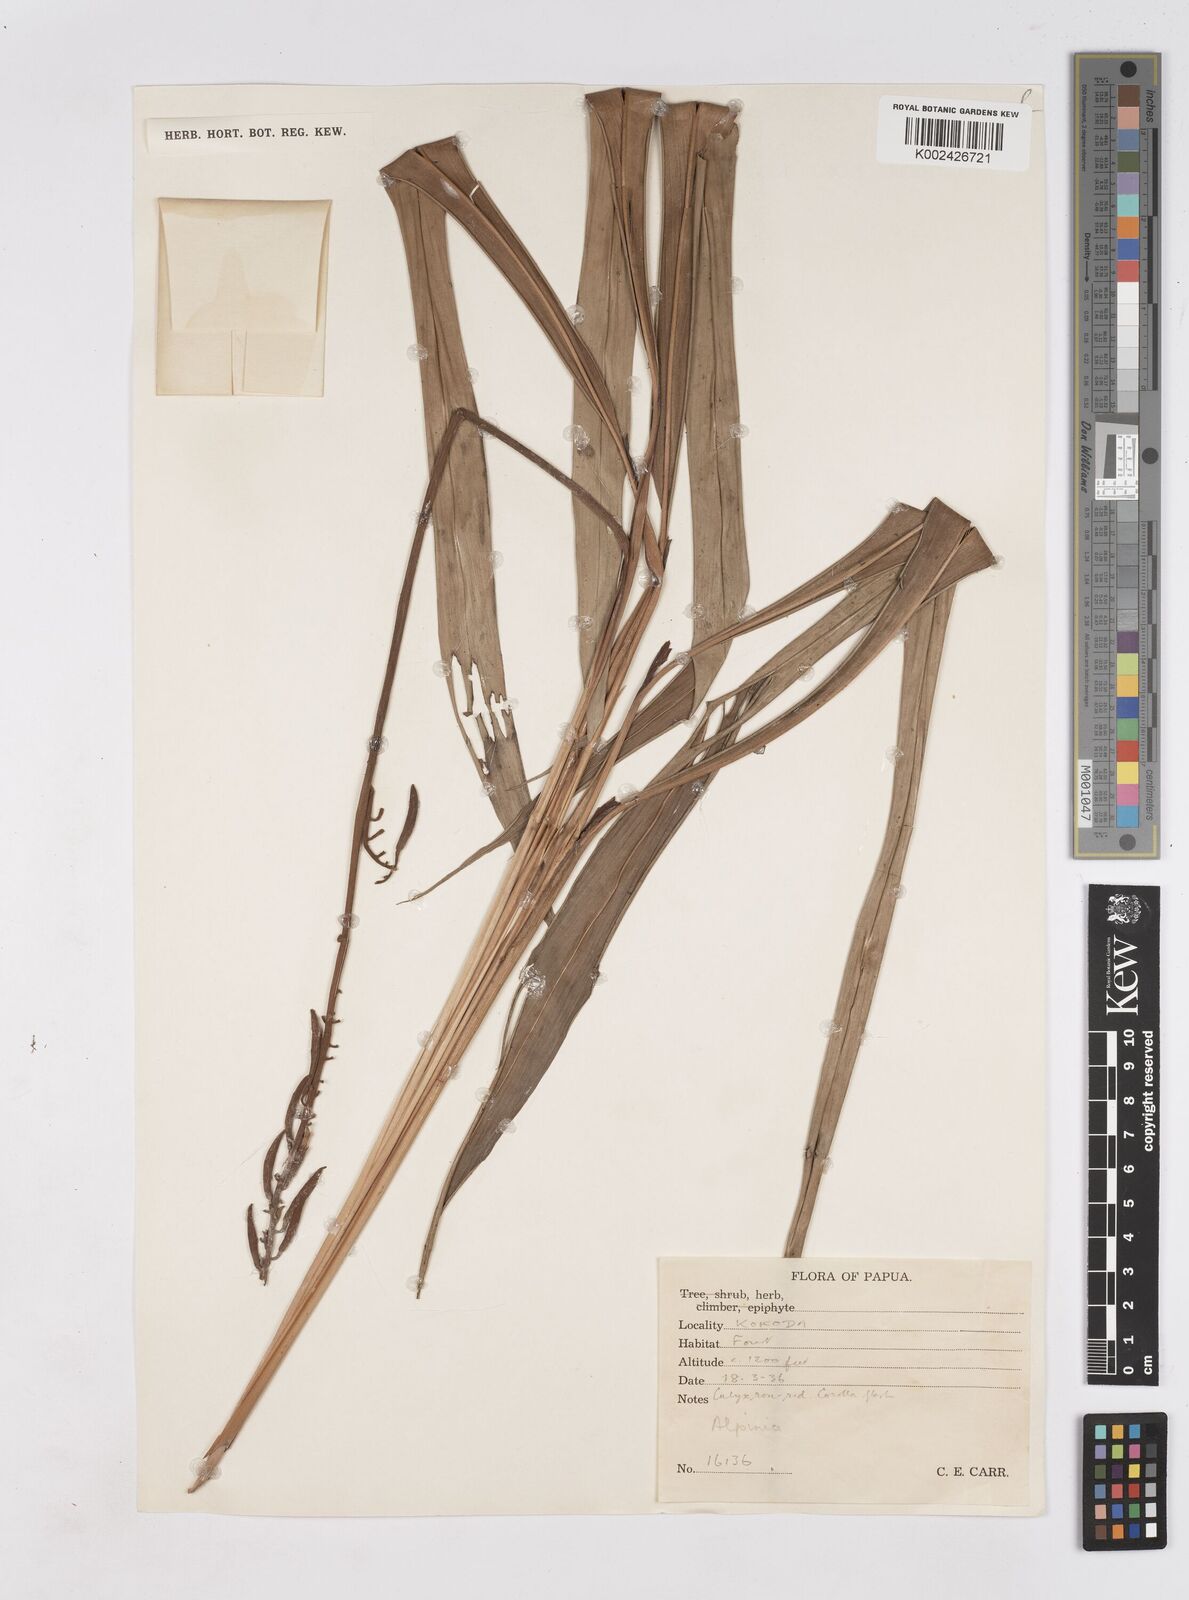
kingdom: Plantae
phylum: Tracheophyta
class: Liliopsida
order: Zingiberales
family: Zingiberaceae
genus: Riedelia
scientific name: Riedelia
